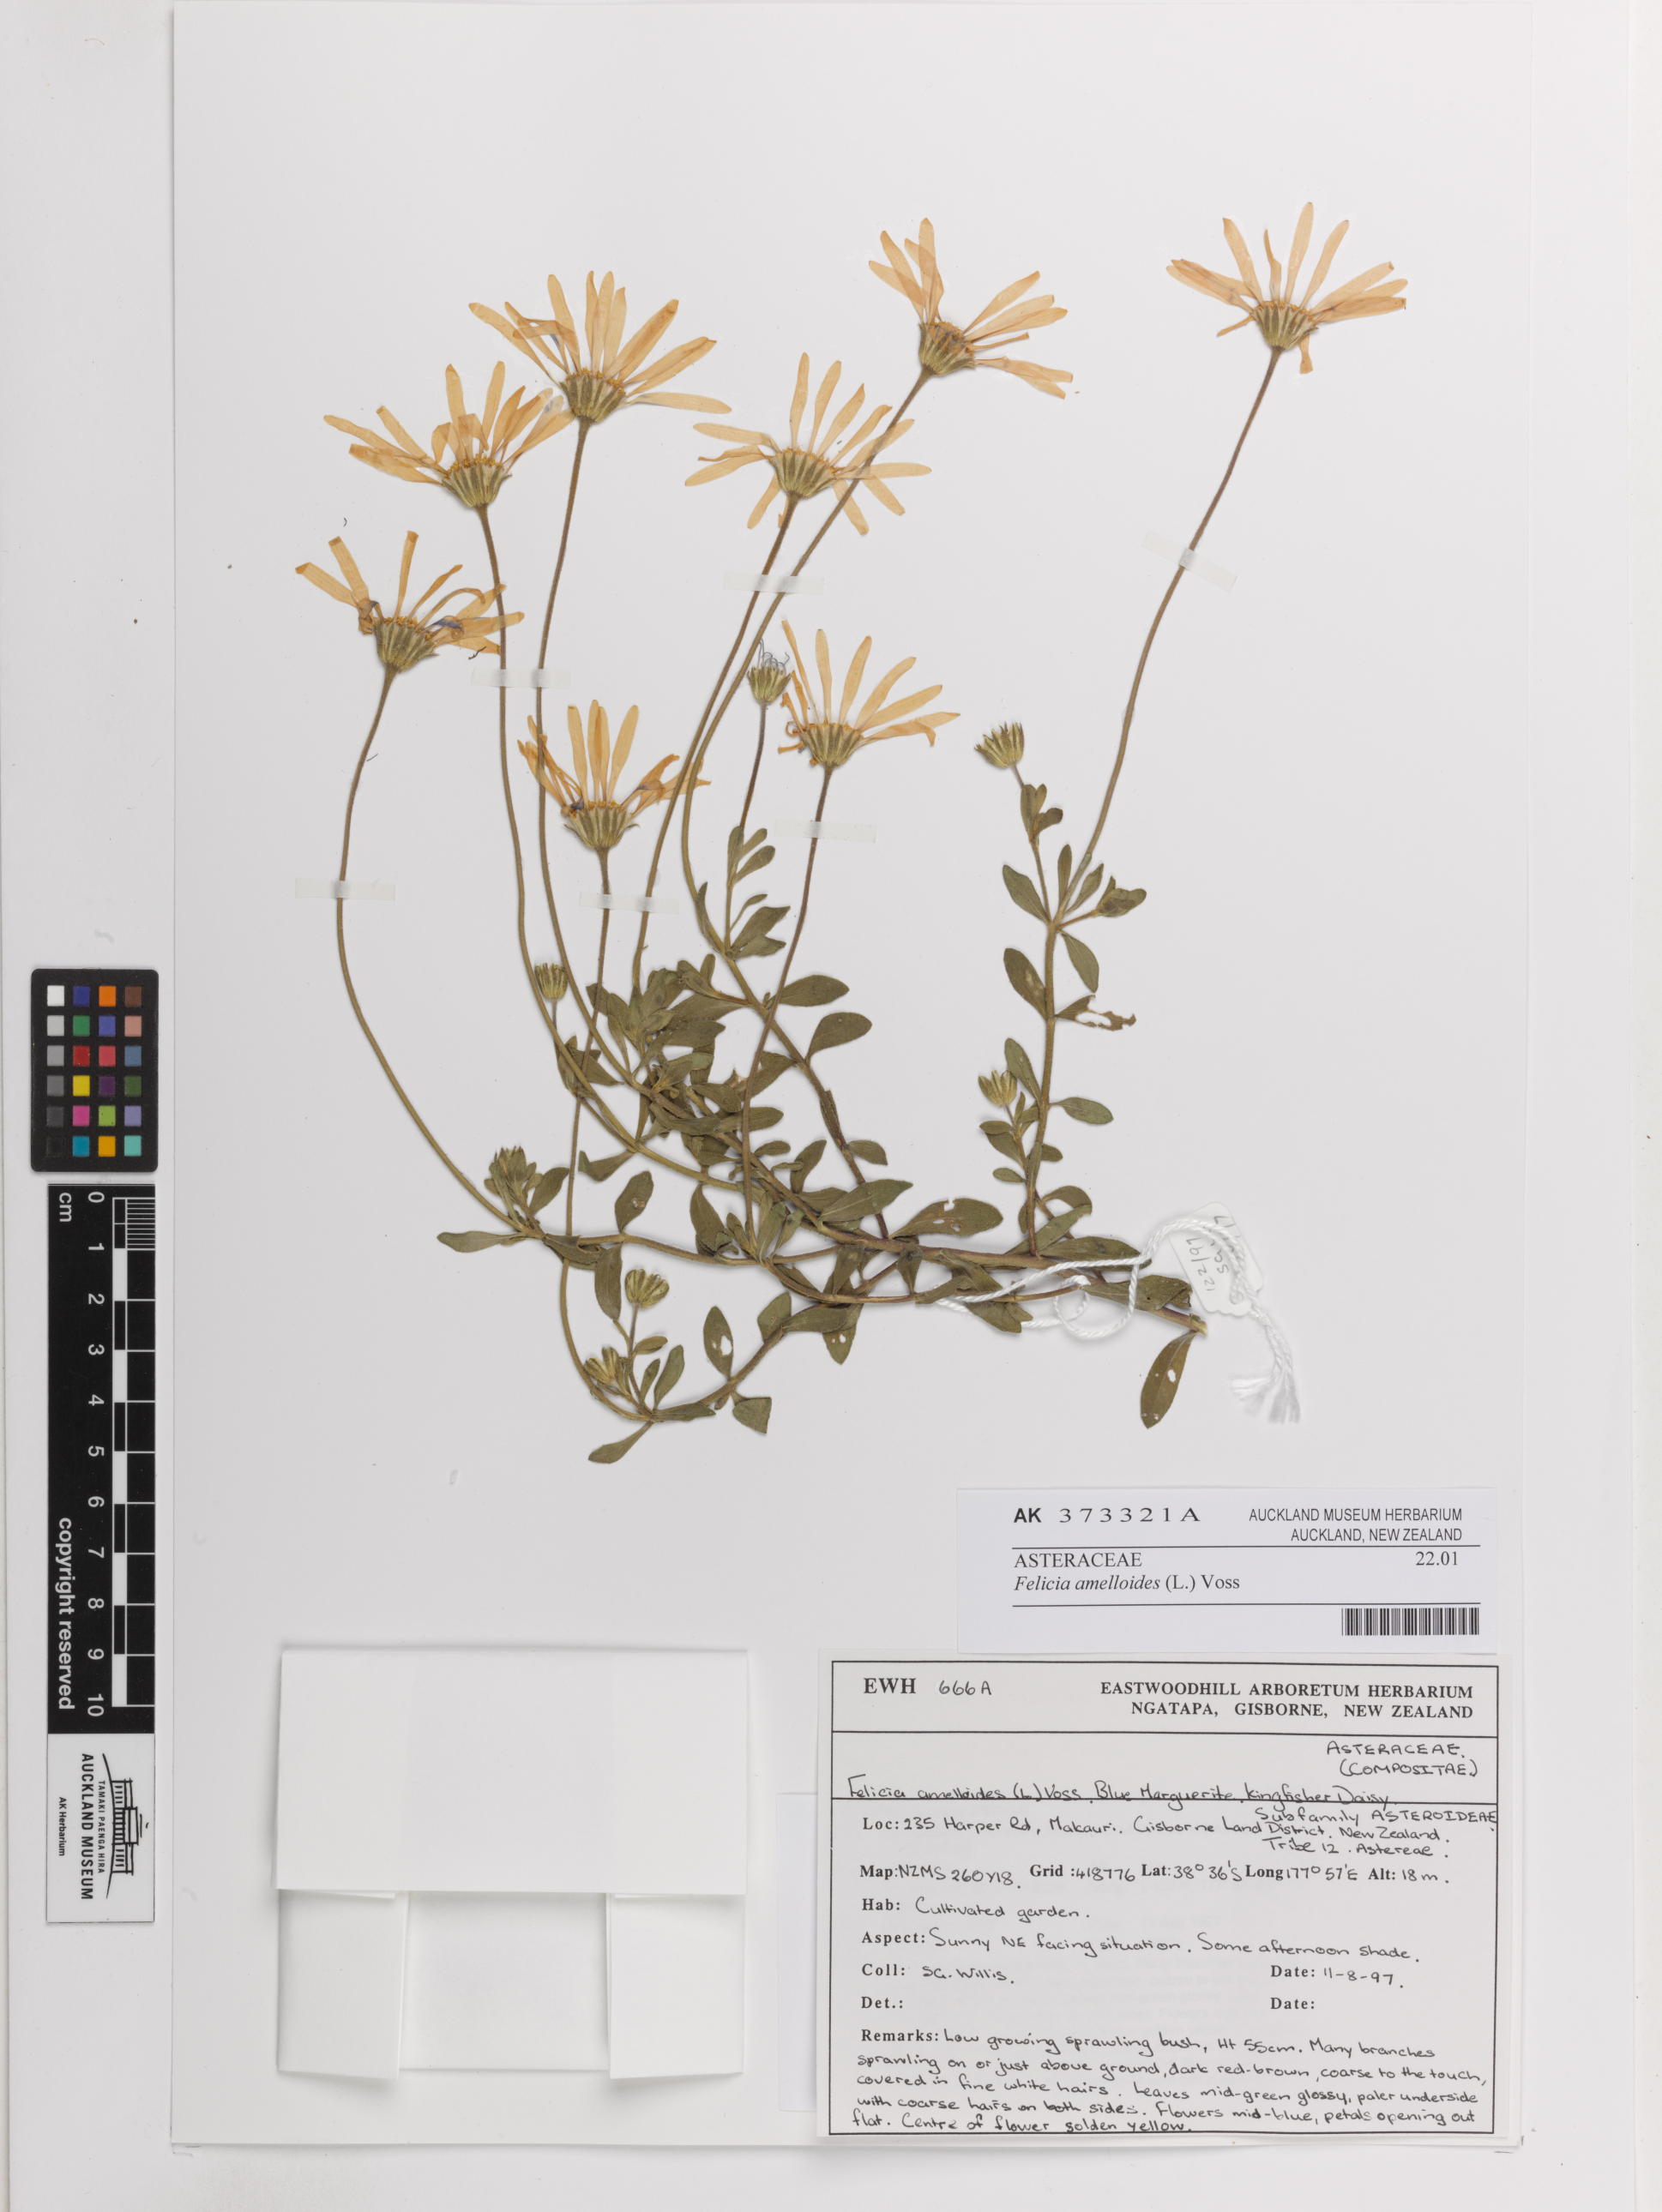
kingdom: Plantae
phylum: Tracheophyta
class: Magnoliopsida
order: Asterales
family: Asteraceae
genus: Felicia
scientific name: Felicia amelloides
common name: Blue marguerite
